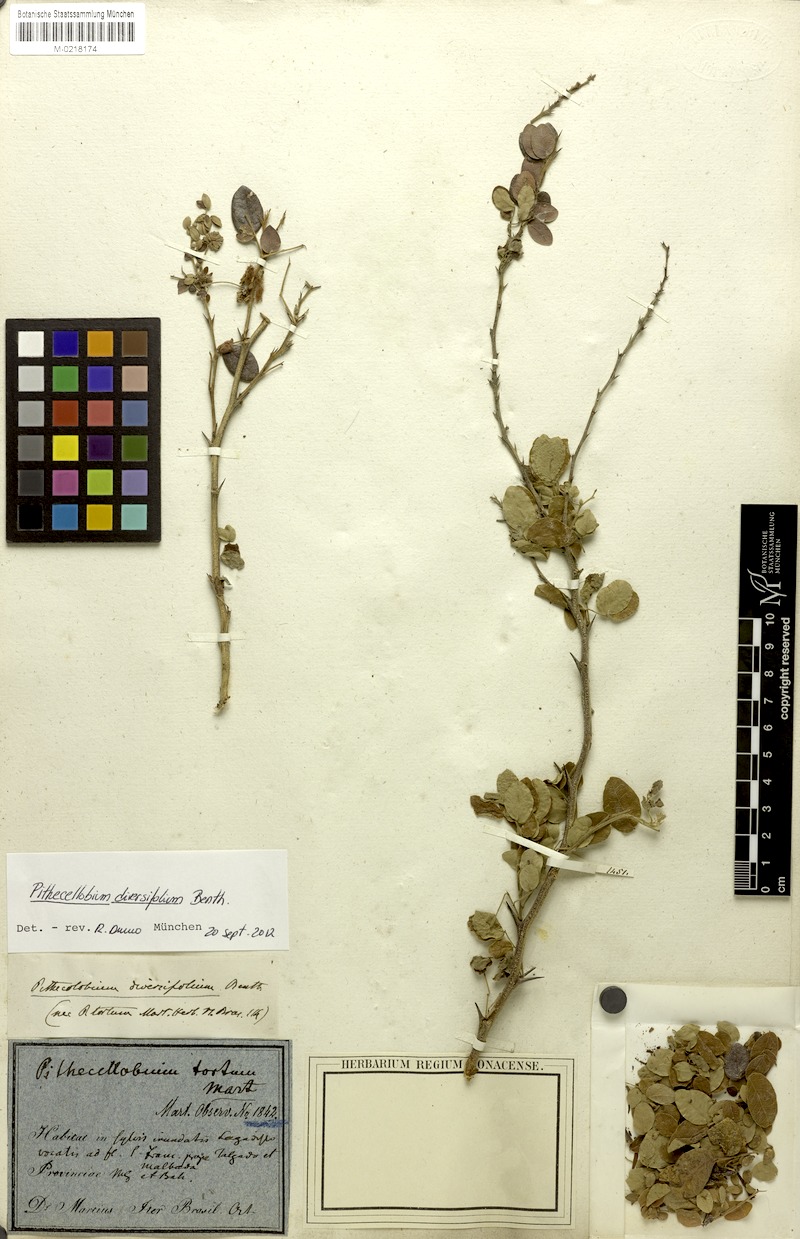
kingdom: Plantae
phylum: Tracheophyta
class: Magnoliopsida
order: Fabales
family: Fabaceae
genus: Pithecellobium
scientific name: Pithecellobium diversifolium
